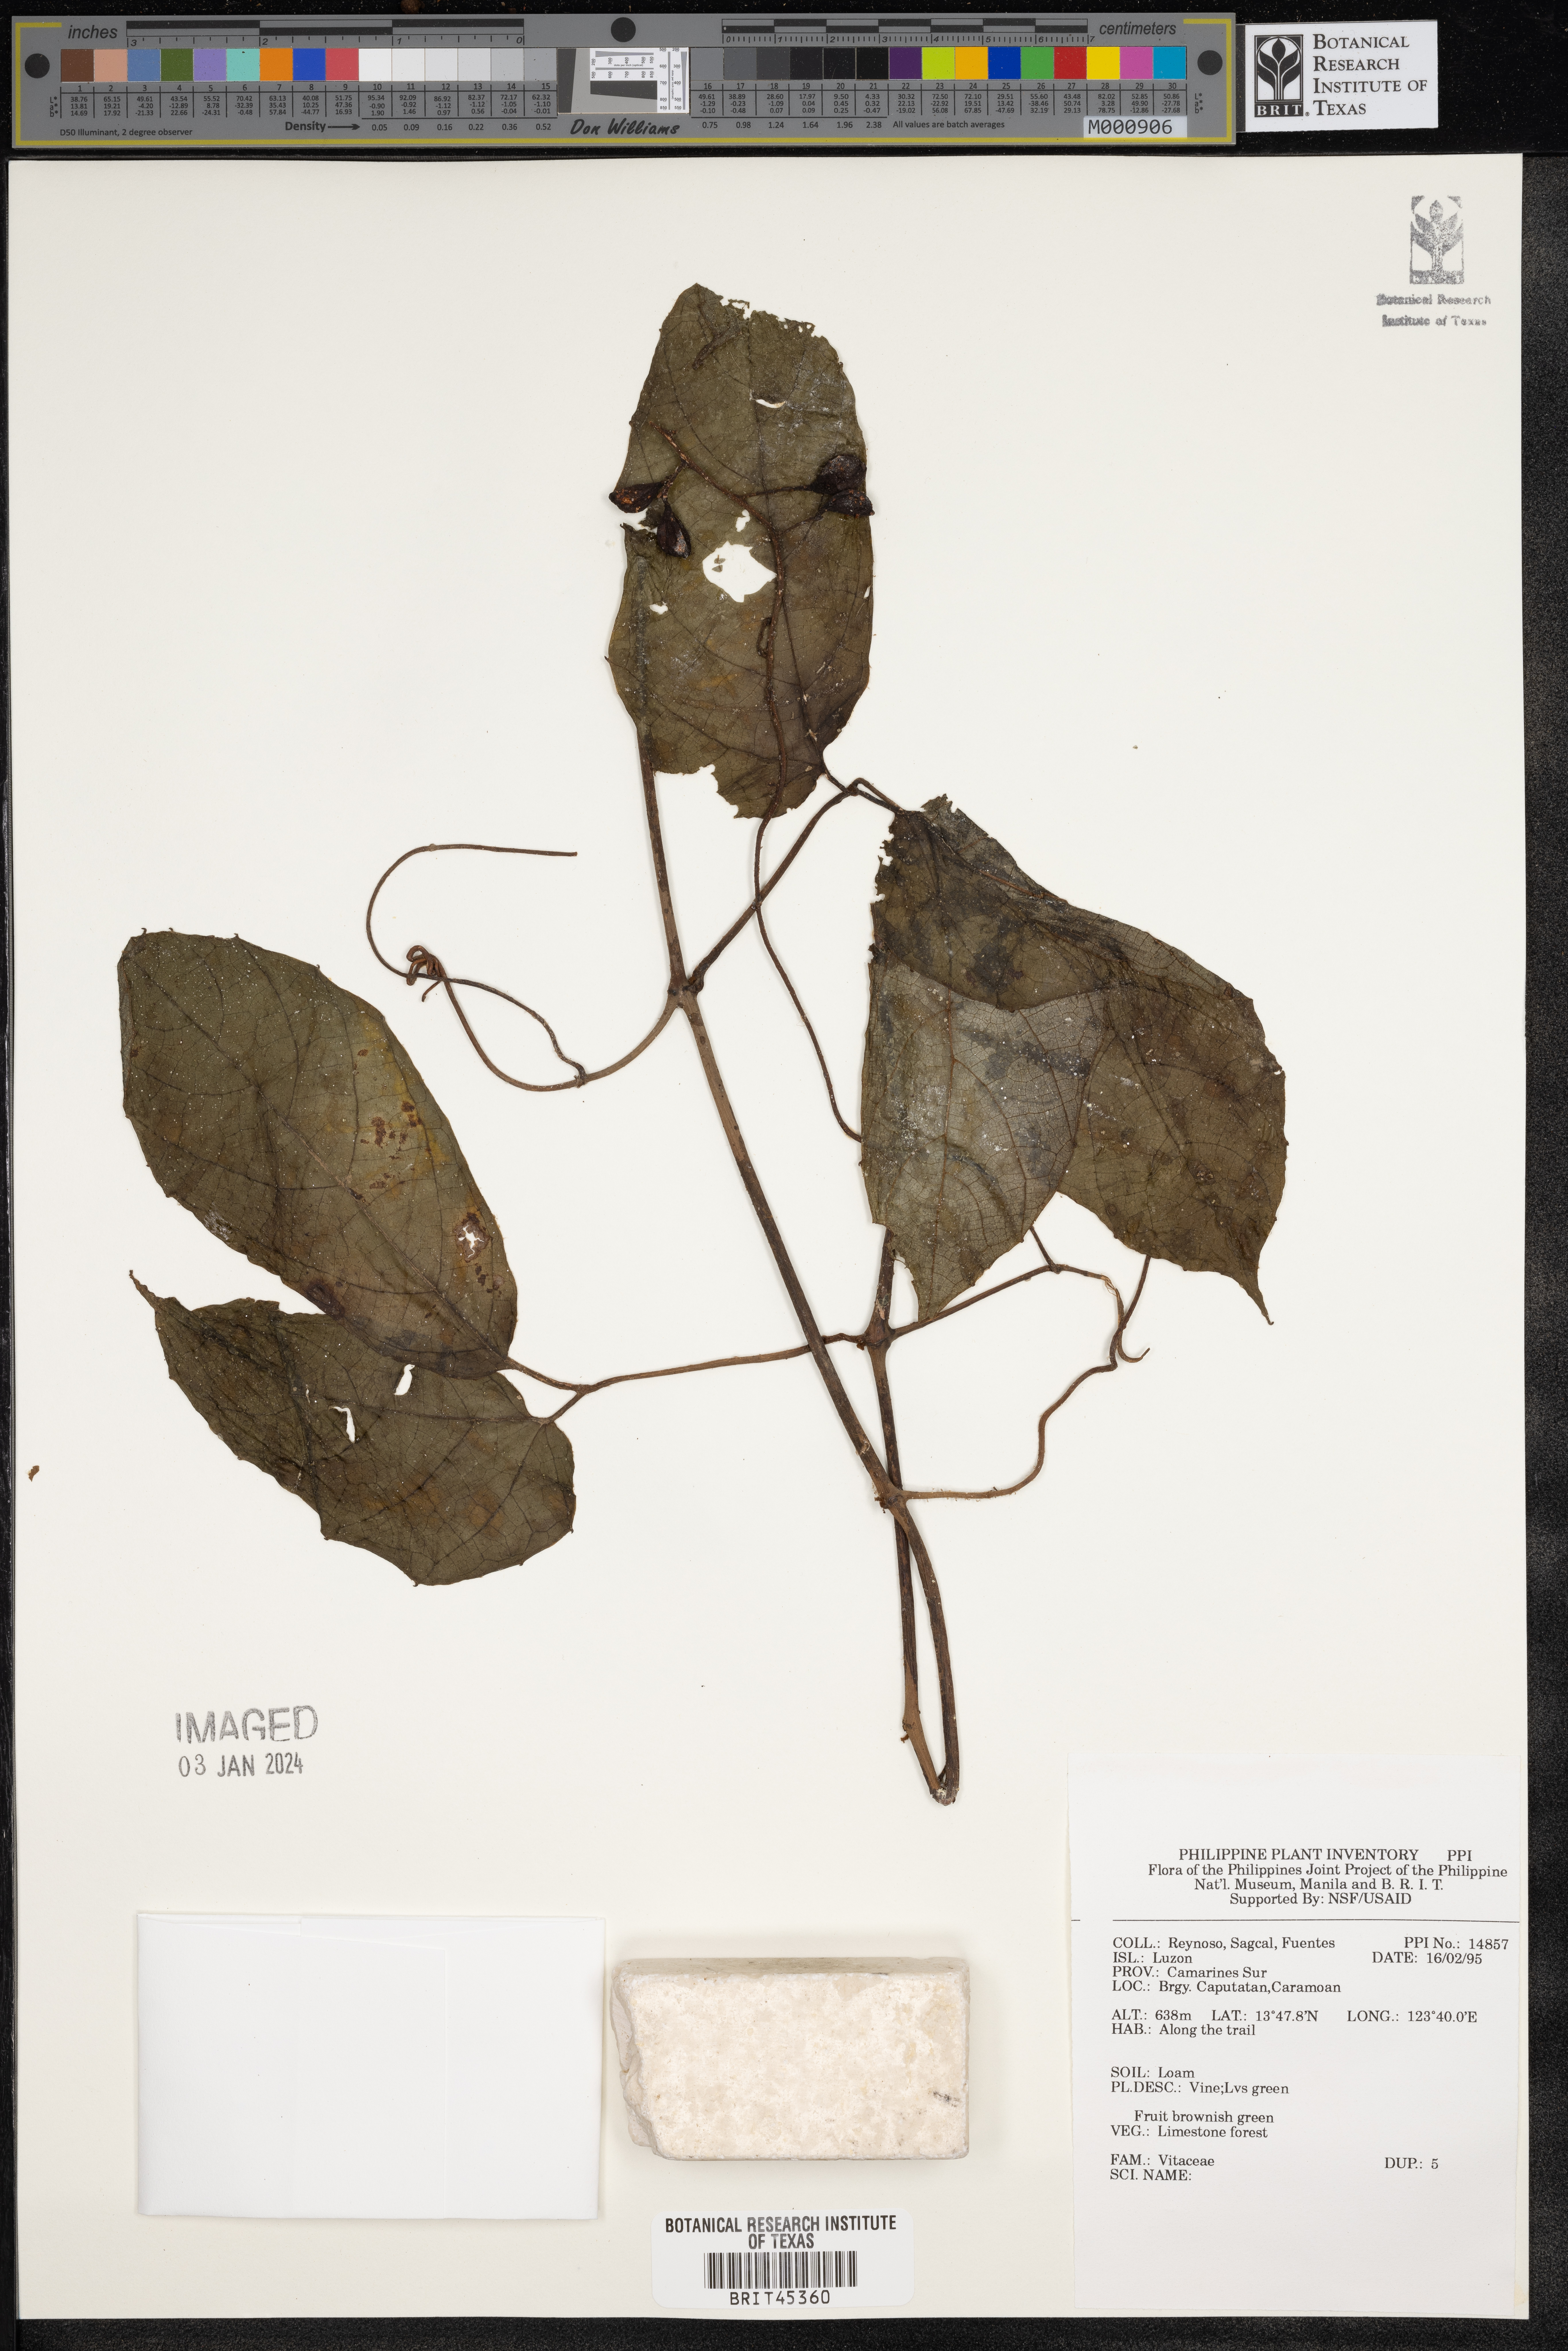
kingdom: Plantae
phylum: Tracheophyta
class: Magnoliopsida
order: Vitales
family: Vitaceae
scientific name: Vitaceae
